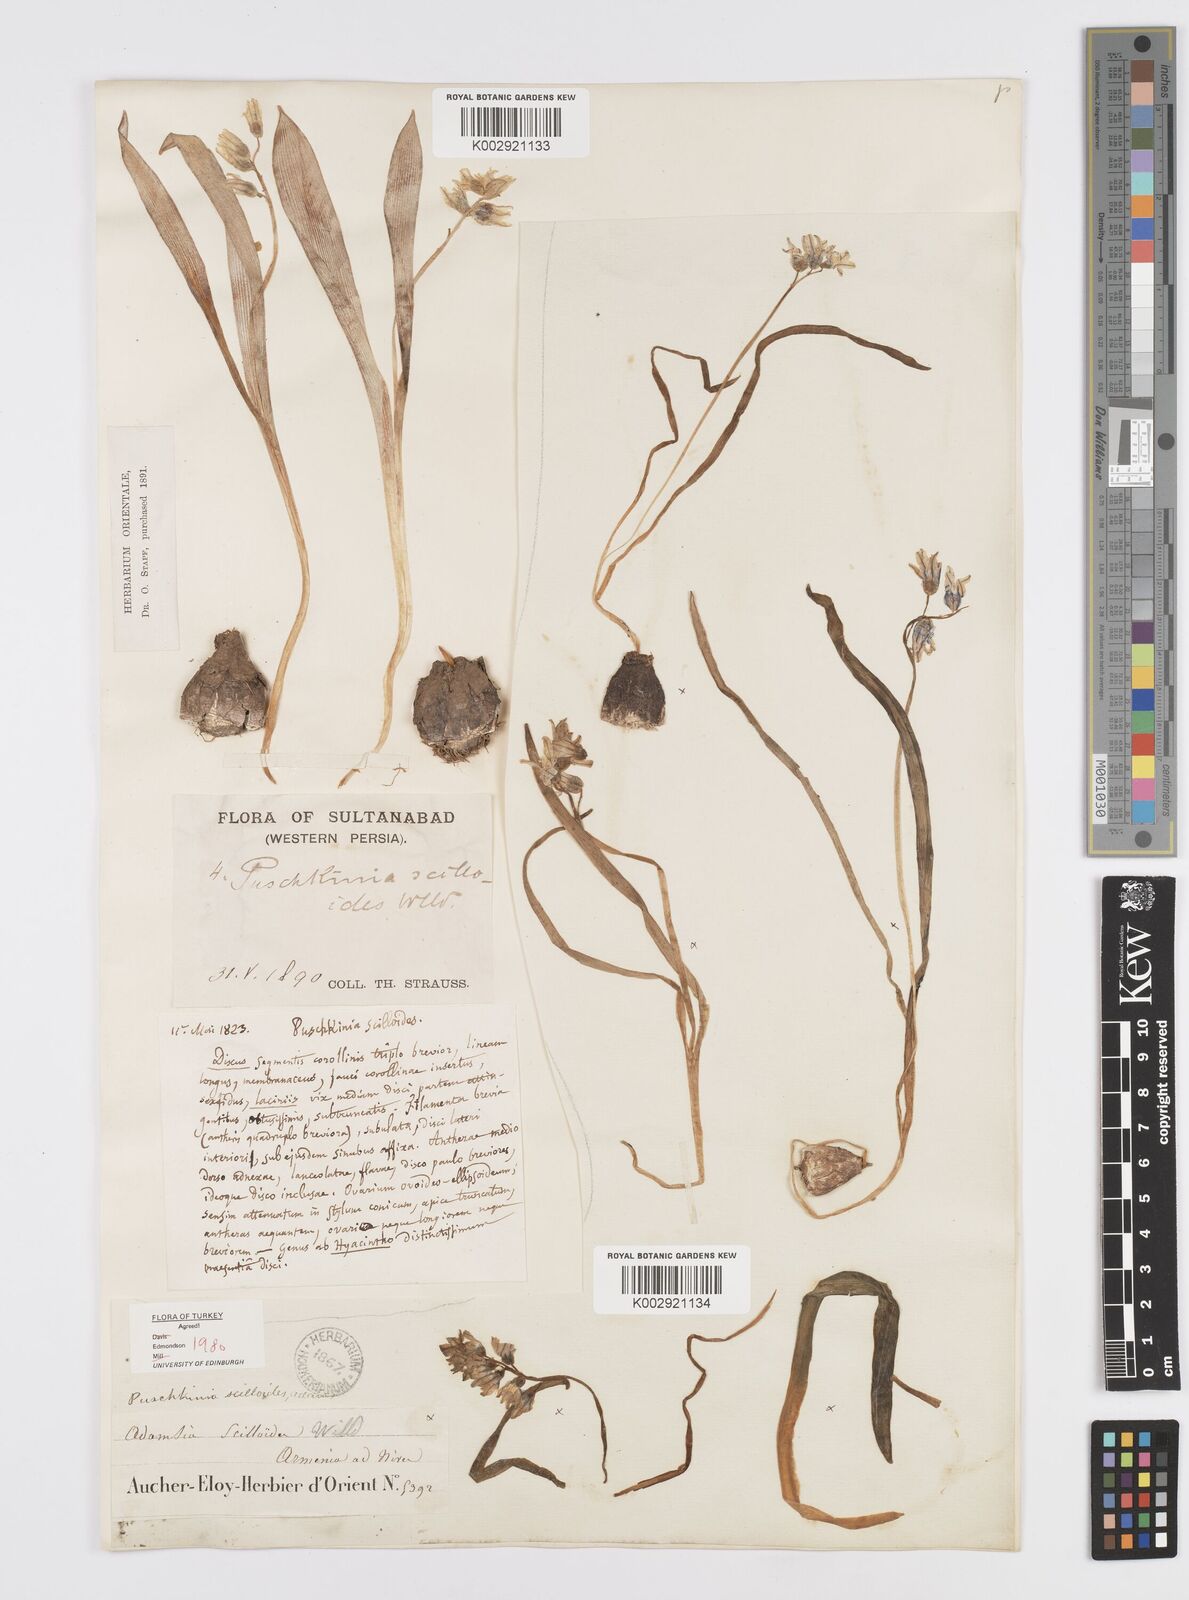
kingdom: Plantae
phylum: Tracheophyta
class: Liliopsida
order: Asparagales
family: Asparagaceae
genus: Puschkinia
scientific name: Puschkinia scilloides
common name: Striped squill
